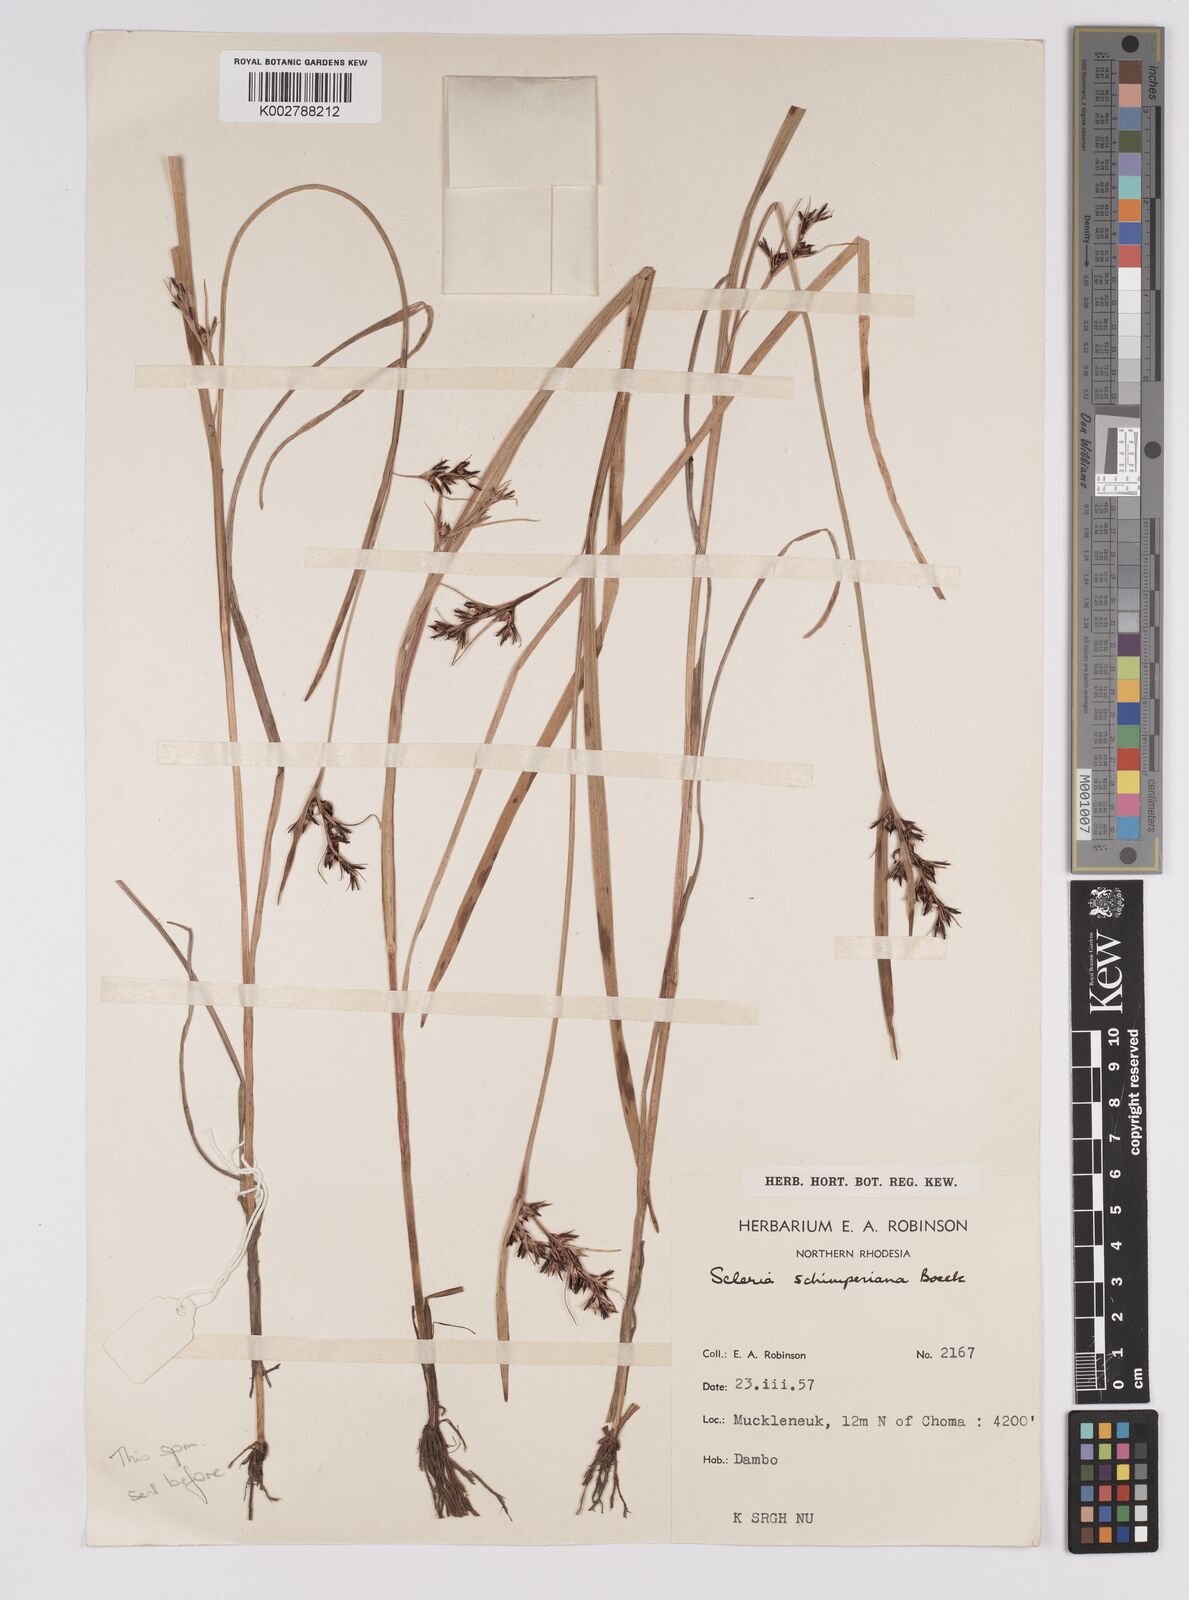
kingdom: Plantae
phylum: Tracheophyta
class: Liliopsida
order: Poales
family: Cyperaceae
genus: Scleria
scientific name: Scleria schimperiana
